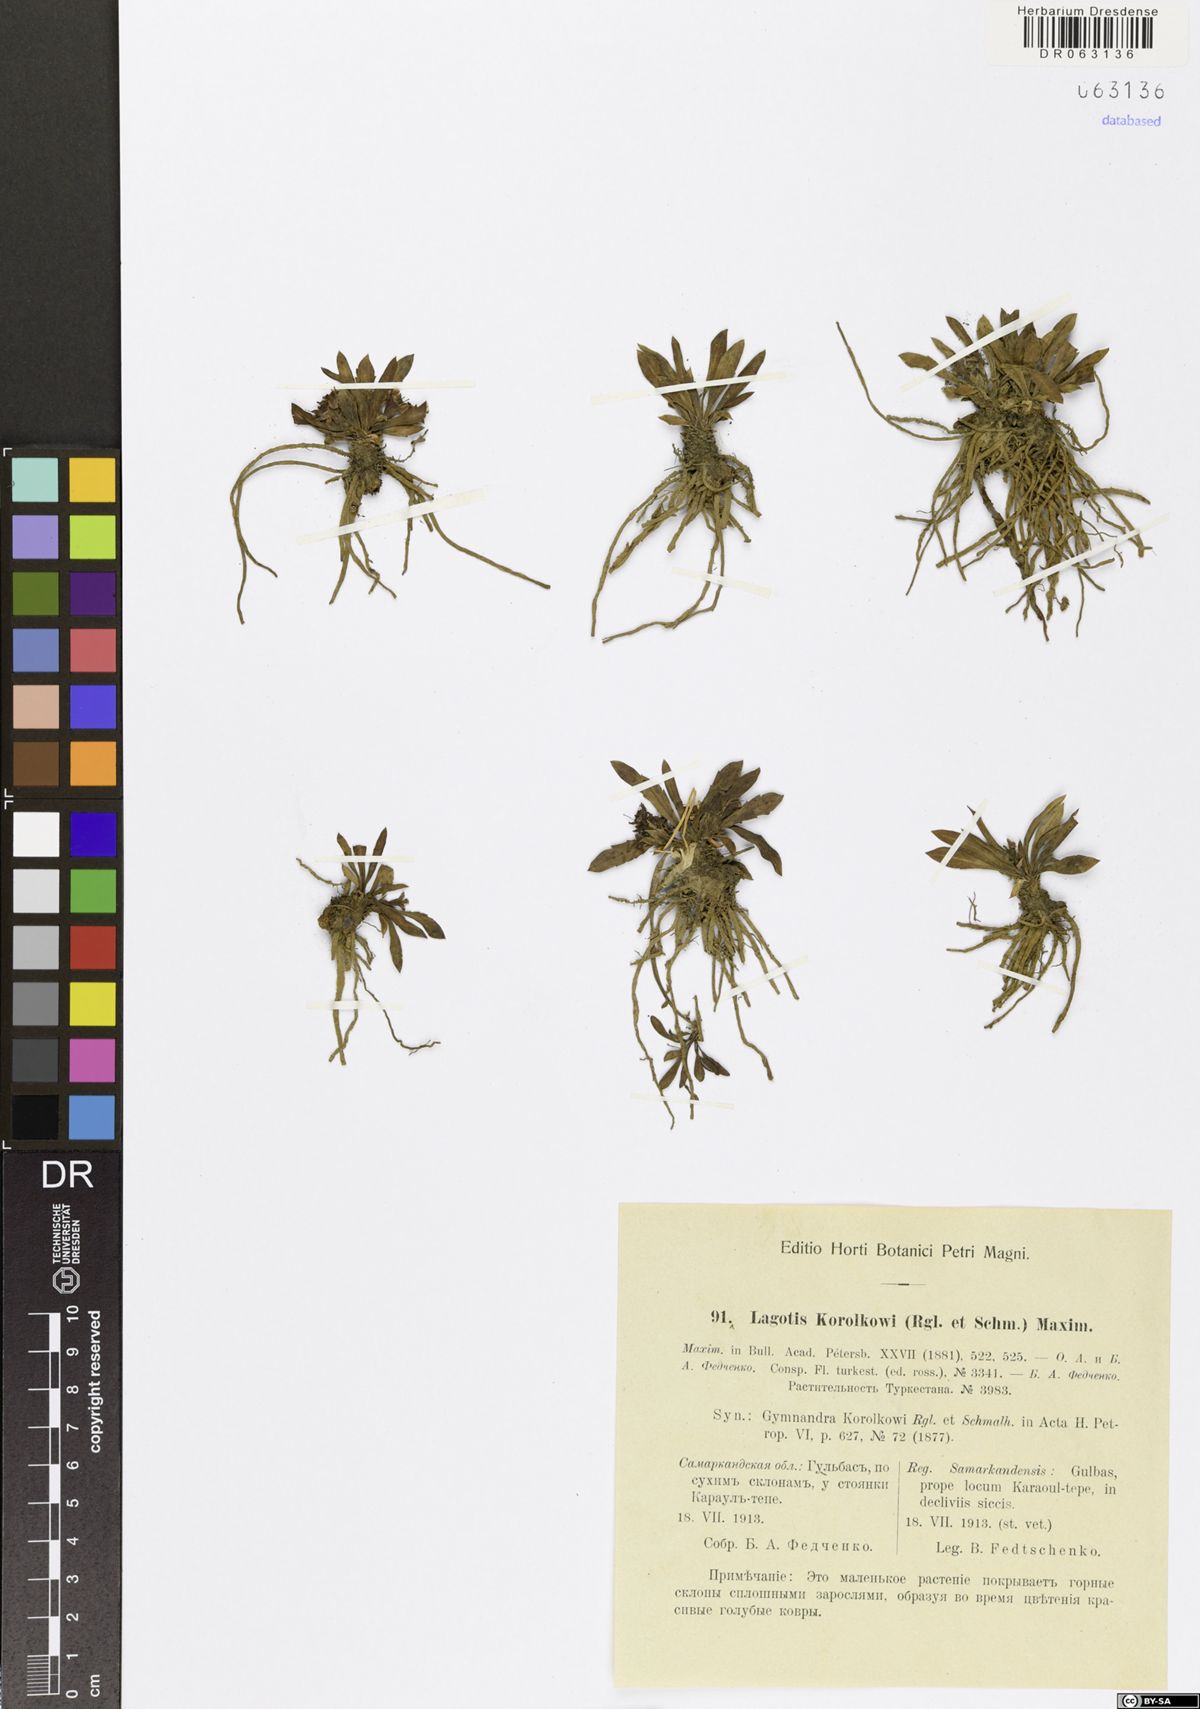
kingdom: Plantae
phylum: Tracheophyta
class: Magnoliopsida
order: Lamiales
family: Plantaginaceae
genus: Lagotis
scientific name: Lagotis korolkowii
